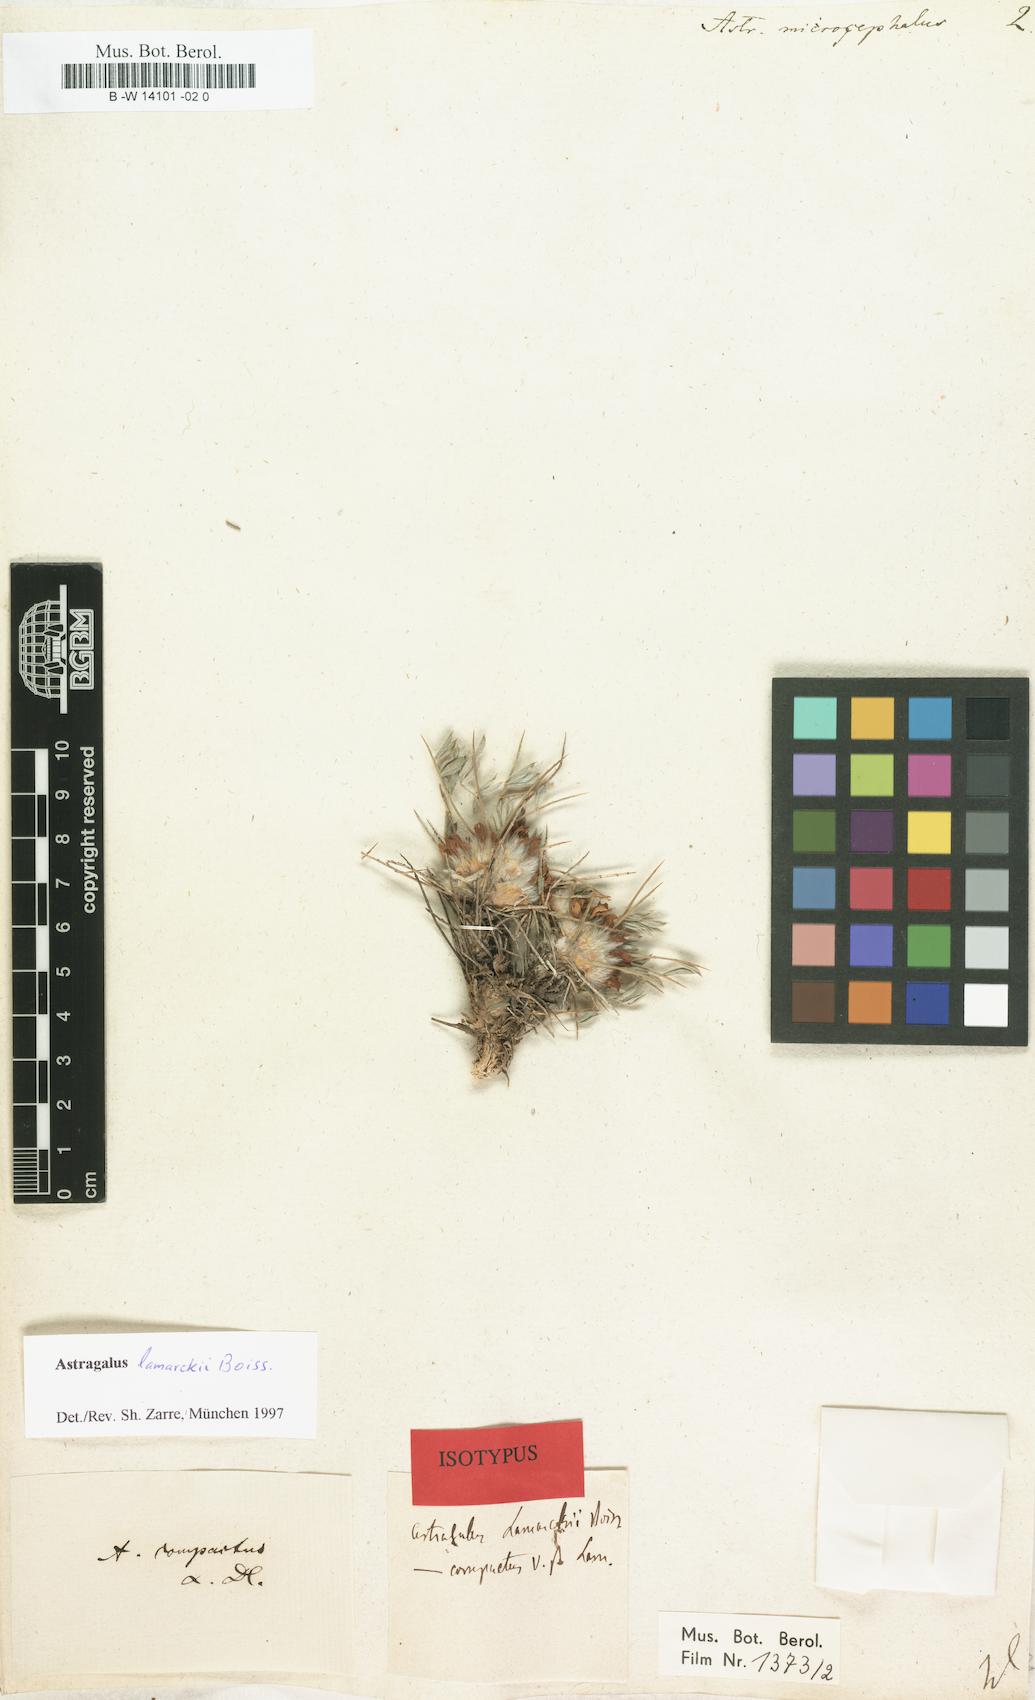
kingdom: Plantae
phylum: Tracheophyta
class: Magnoliopsida
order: Fabales
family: Fabaceae
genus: Astragalus
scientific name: Astragalus microcephalus
